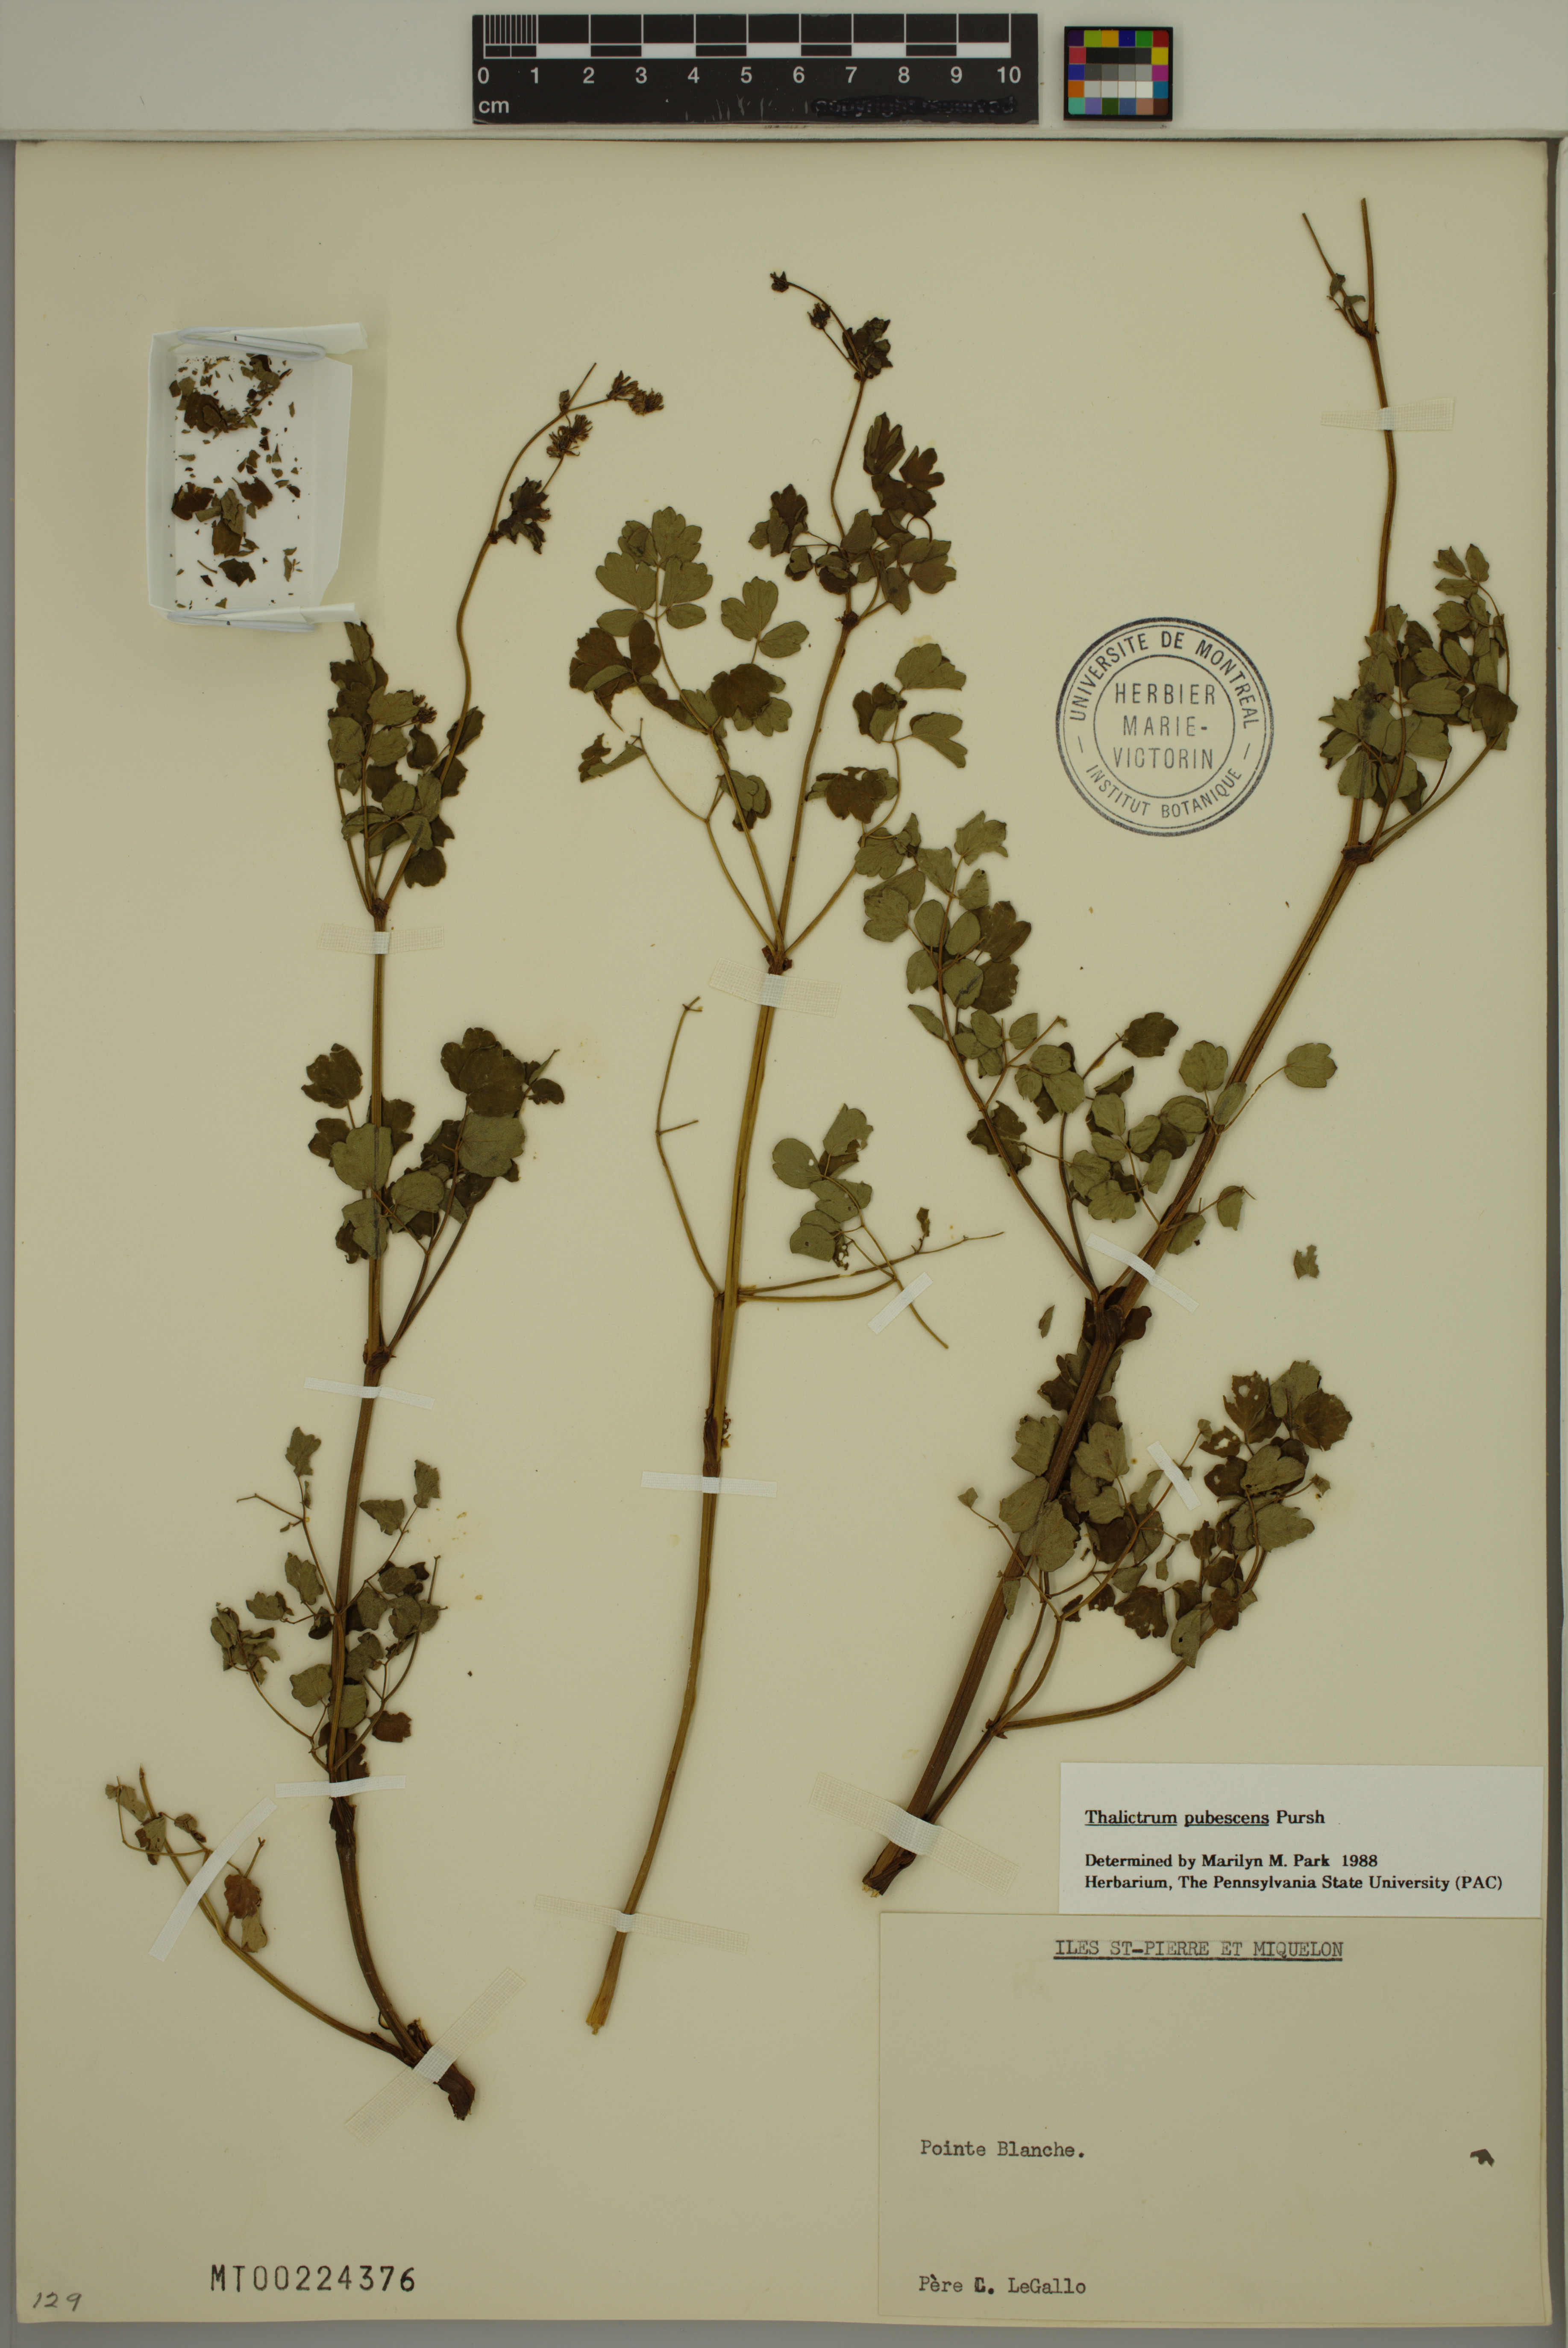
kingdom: Plantae
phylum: Tracheophyta
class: Magnoliopsida
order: Ranunculales
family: Ranunculaceae
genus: Thalictrum
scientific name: Thalictrum pubescens
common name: King-of-the-meadow
